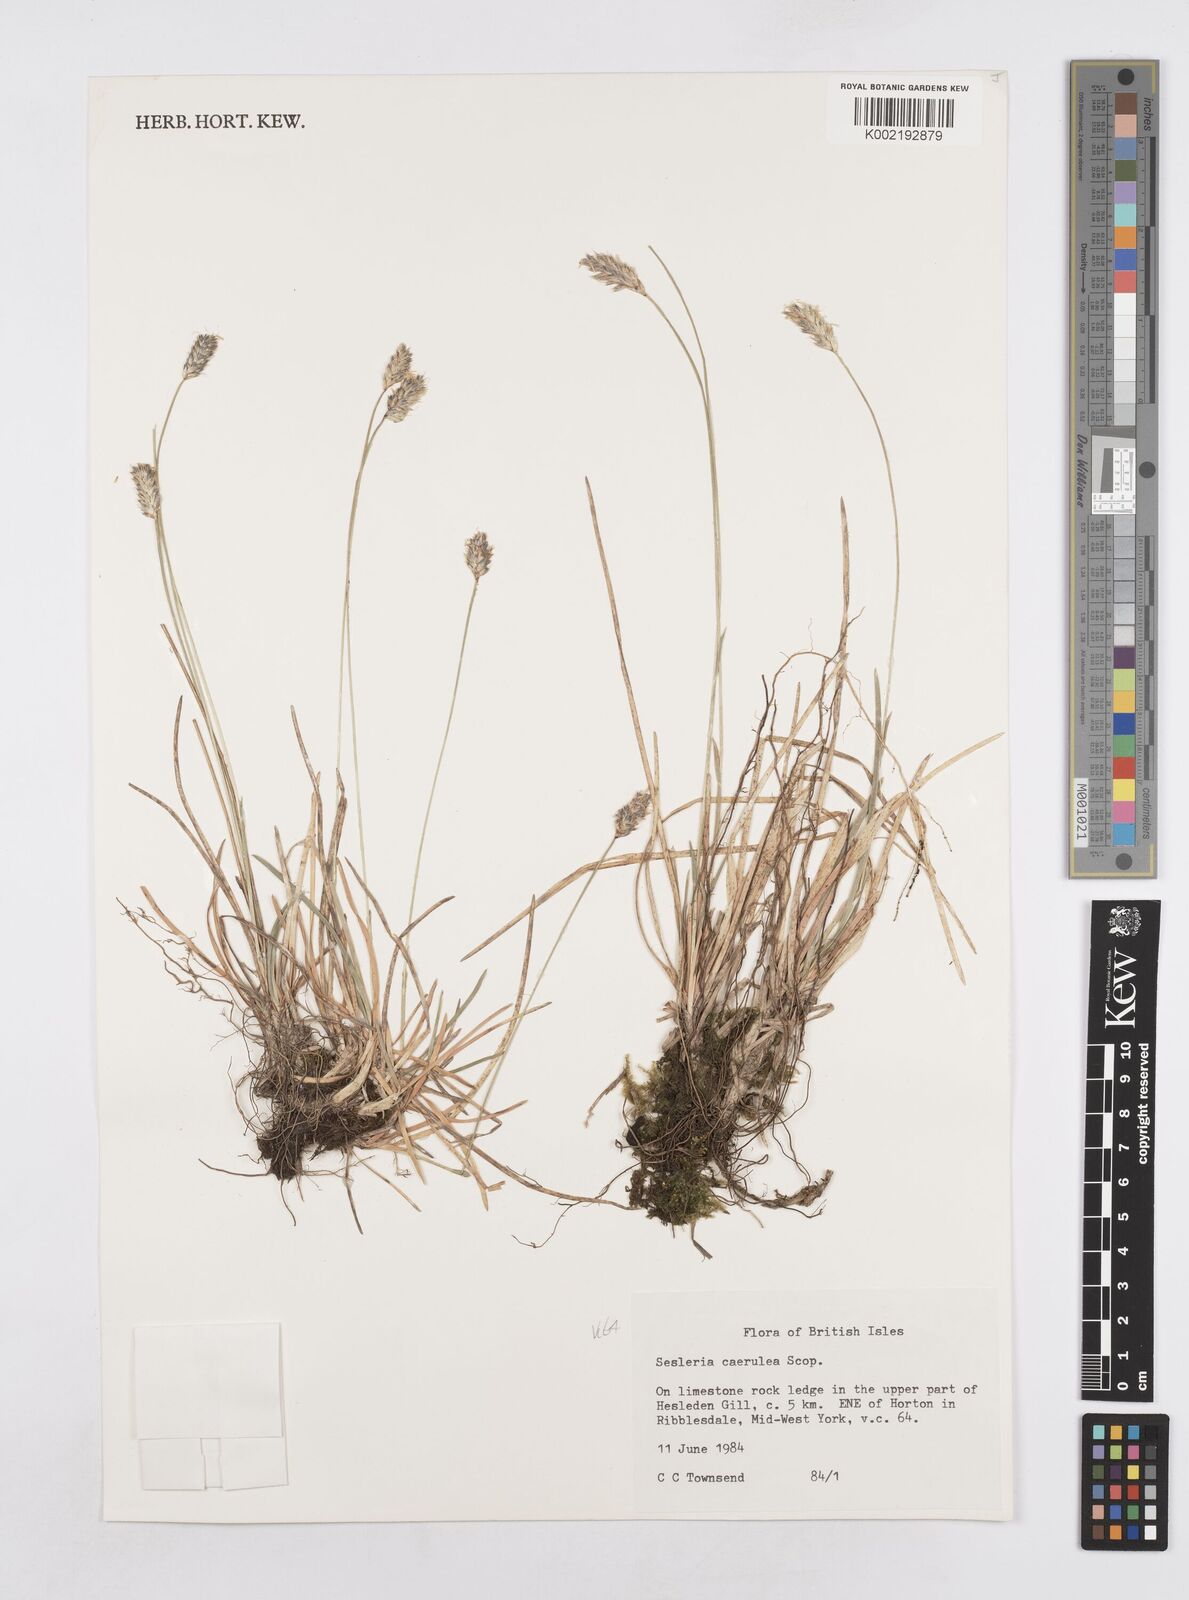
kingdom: Plantae
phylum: Tracheophyta
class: Liliopsida
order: Poales
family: Poaceae
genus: Sesleria
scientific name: Sesleria caerulea
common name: Blue moor-grass
